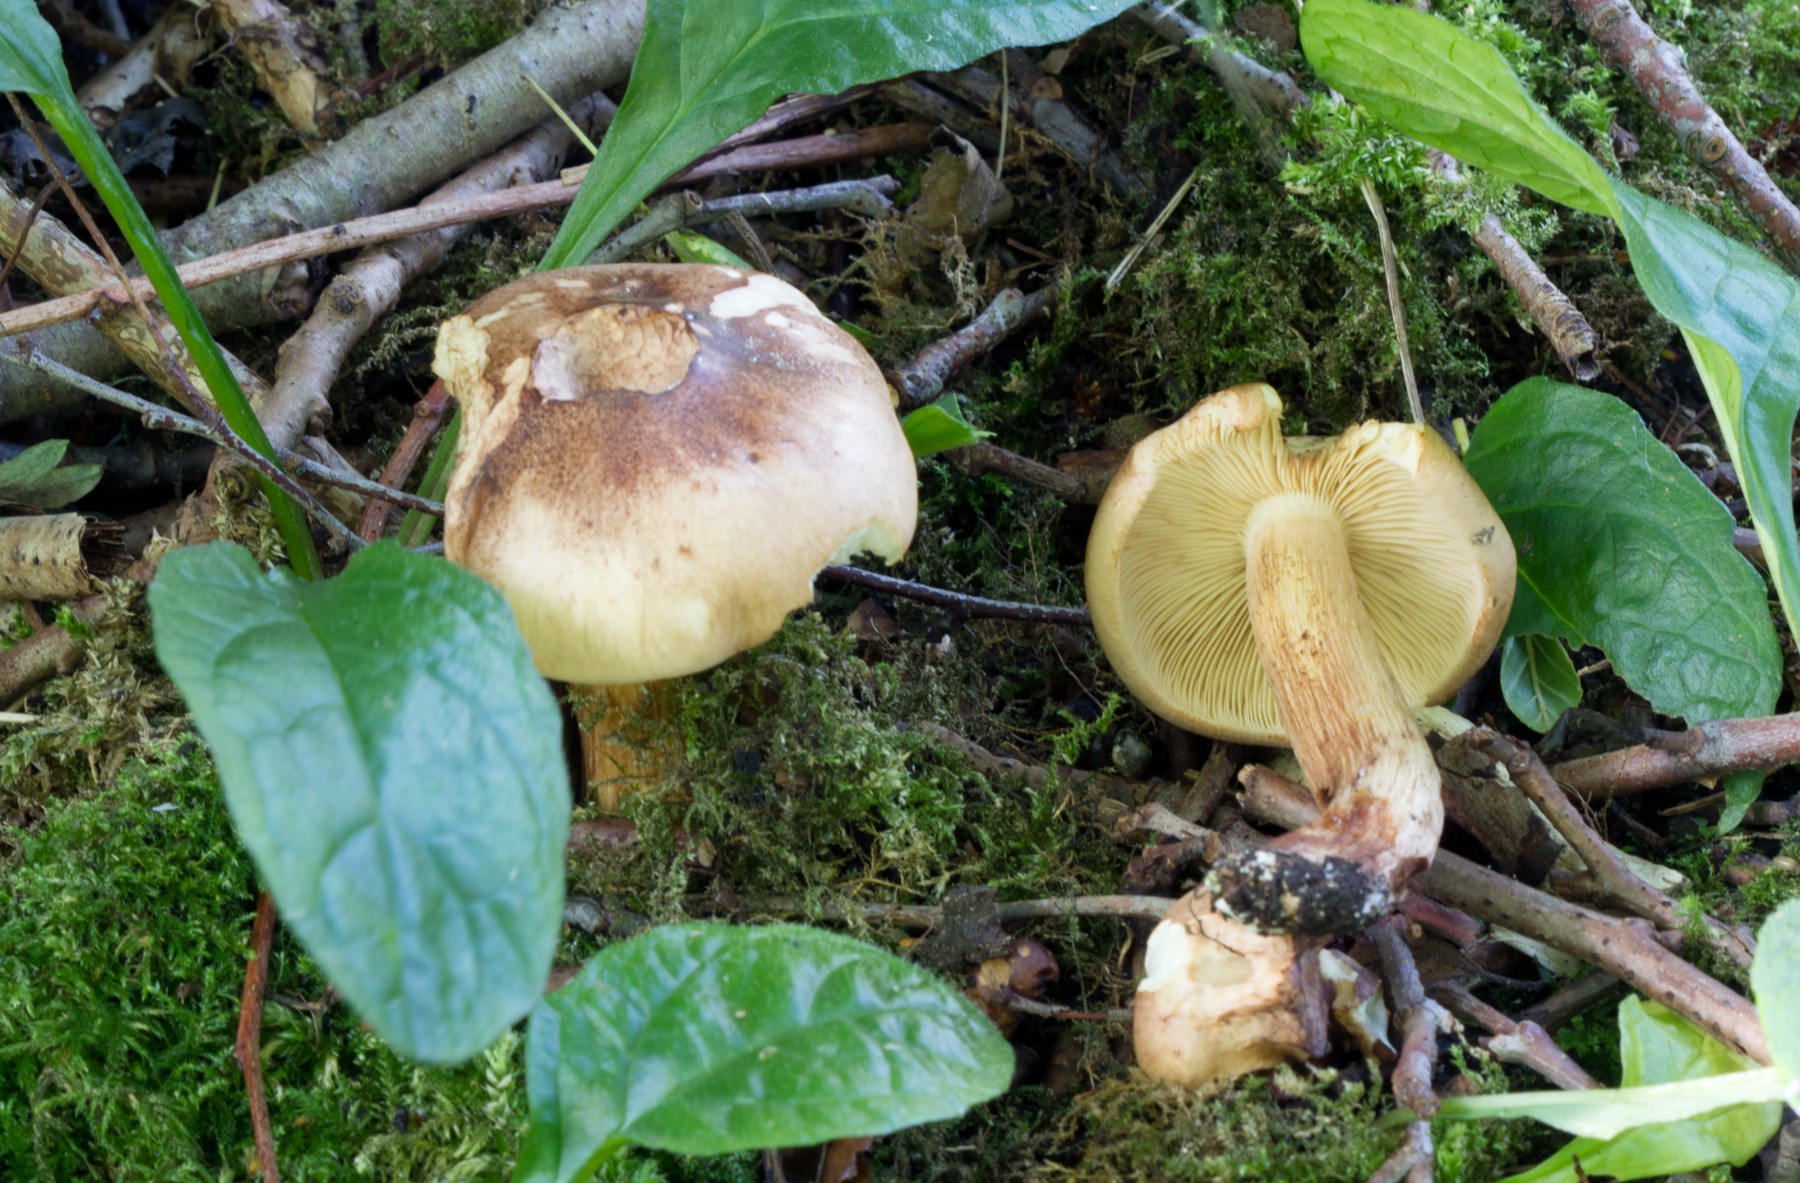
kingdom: Fungi
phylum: Basidiomycota
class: Agaricomycetes
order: Agaricales
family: Tricholomataceae
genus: Tricholoma
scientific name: Tricholoma frondosae
